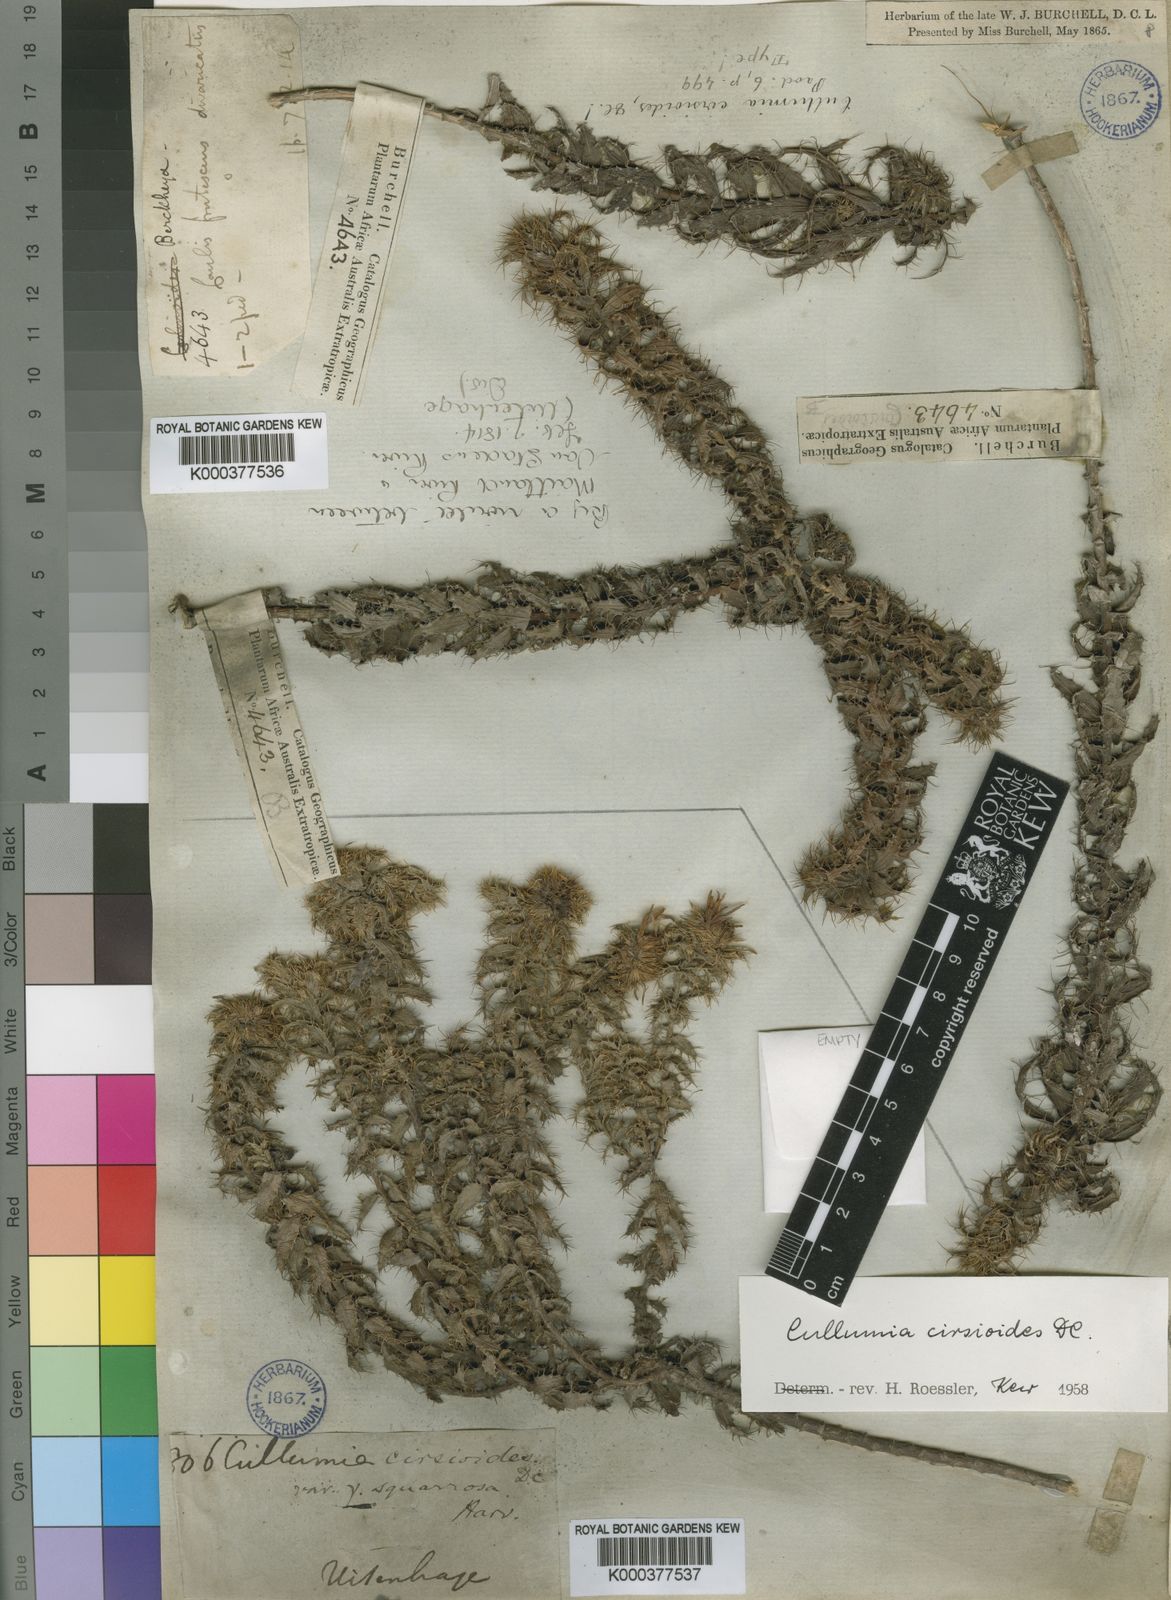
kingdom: Plantae
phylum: Tracheophyta
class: Magnoliopsida
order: Asterales
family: Asteraceae
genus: Cullumia
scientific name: Cullumia cirsioides
